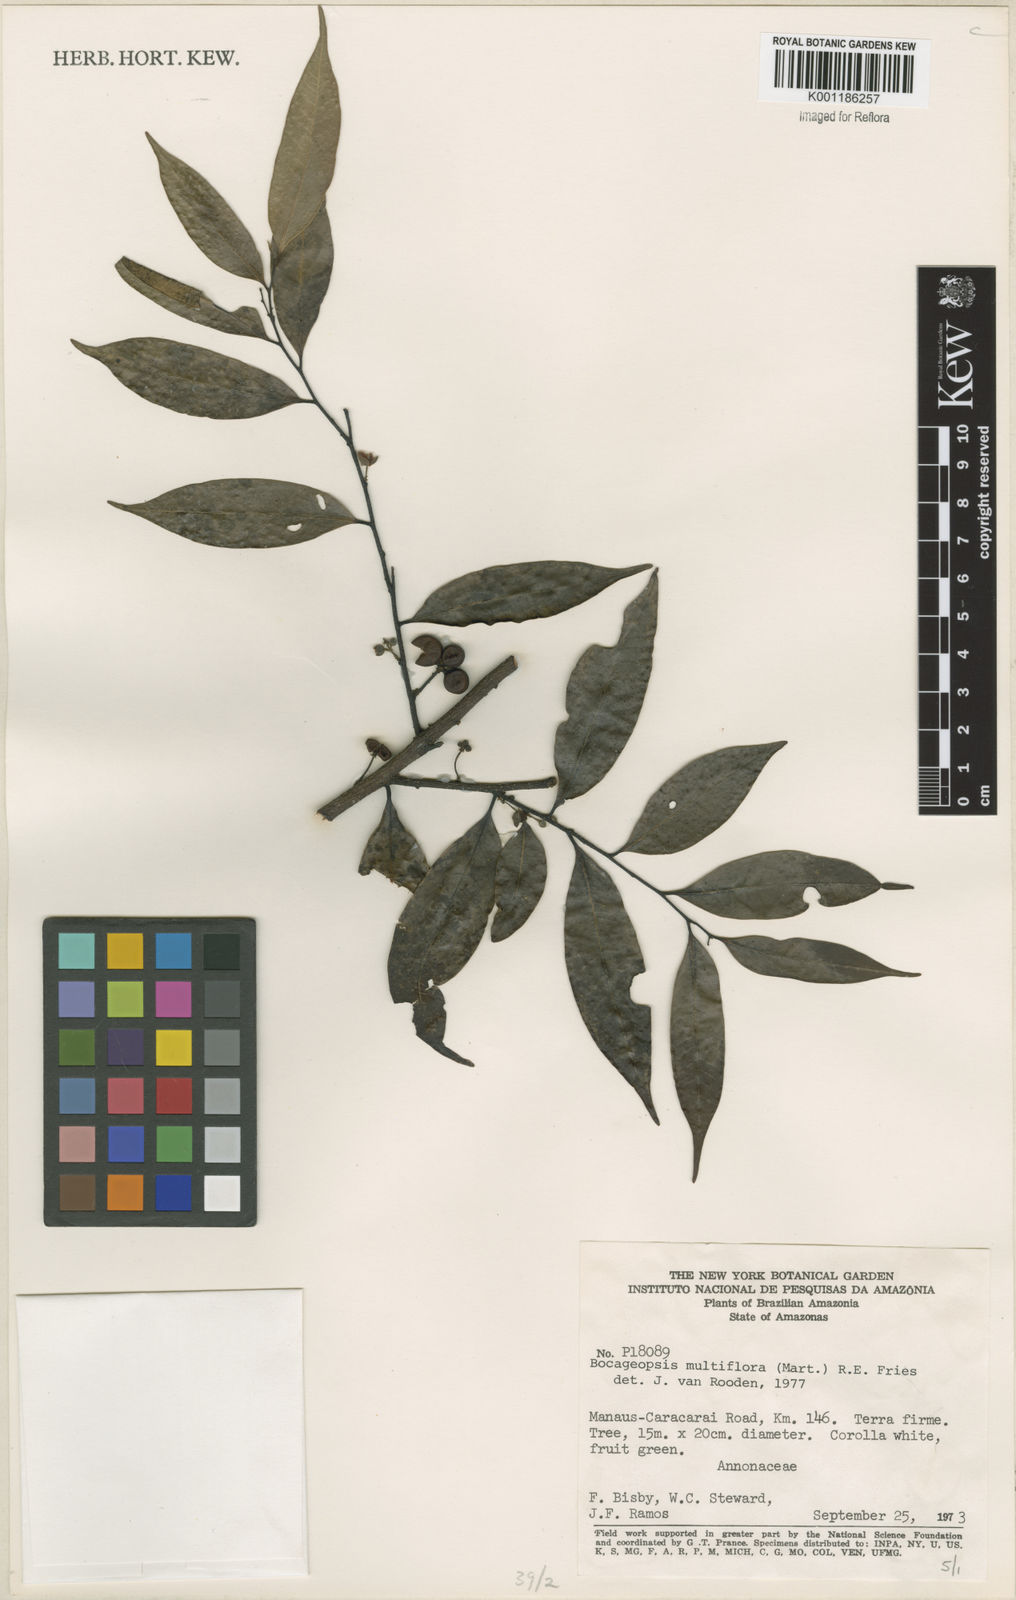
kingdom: Plantae
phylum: Tracheophyta
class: Magnoliopsida
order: Magnoliales
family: Annonaceae
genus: Bocageopsis
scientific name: Bocageopsis multiflora
